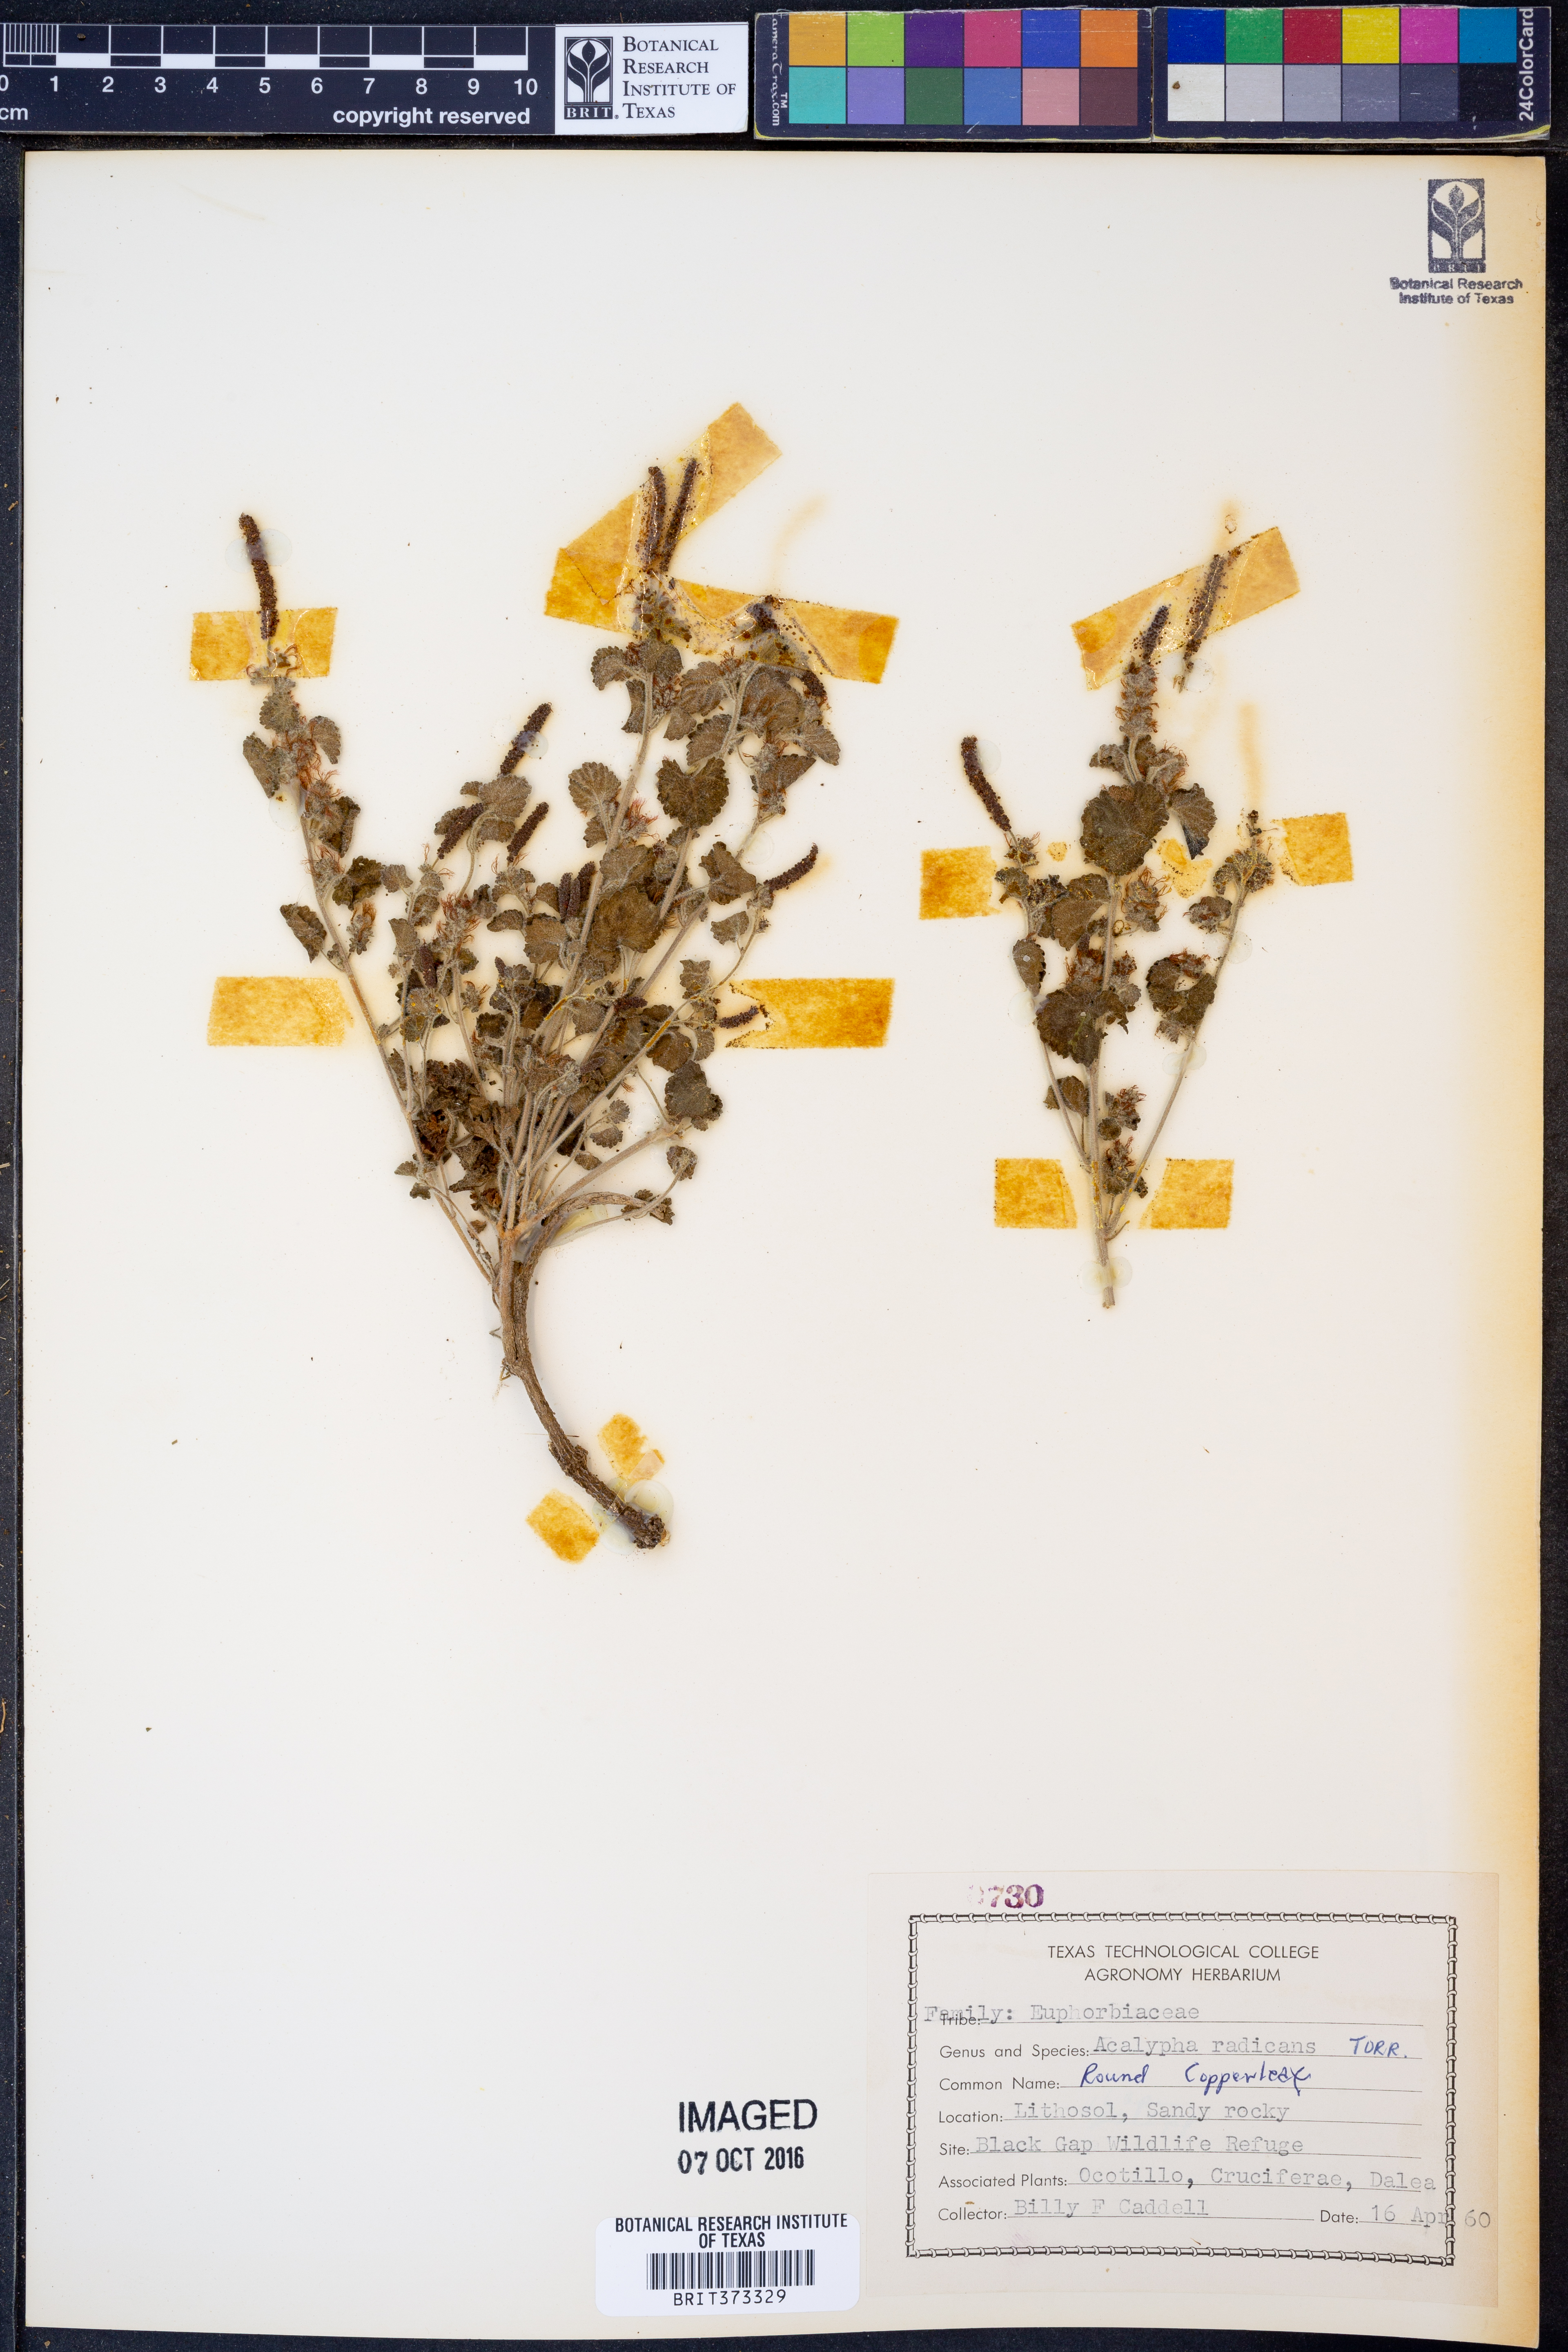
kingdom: Plantae
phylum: Tracheophyta
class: Magnoliopsida
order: Malpighiales
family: Euphorbiaceae
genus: Acalypha
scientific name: Acalypha radians
